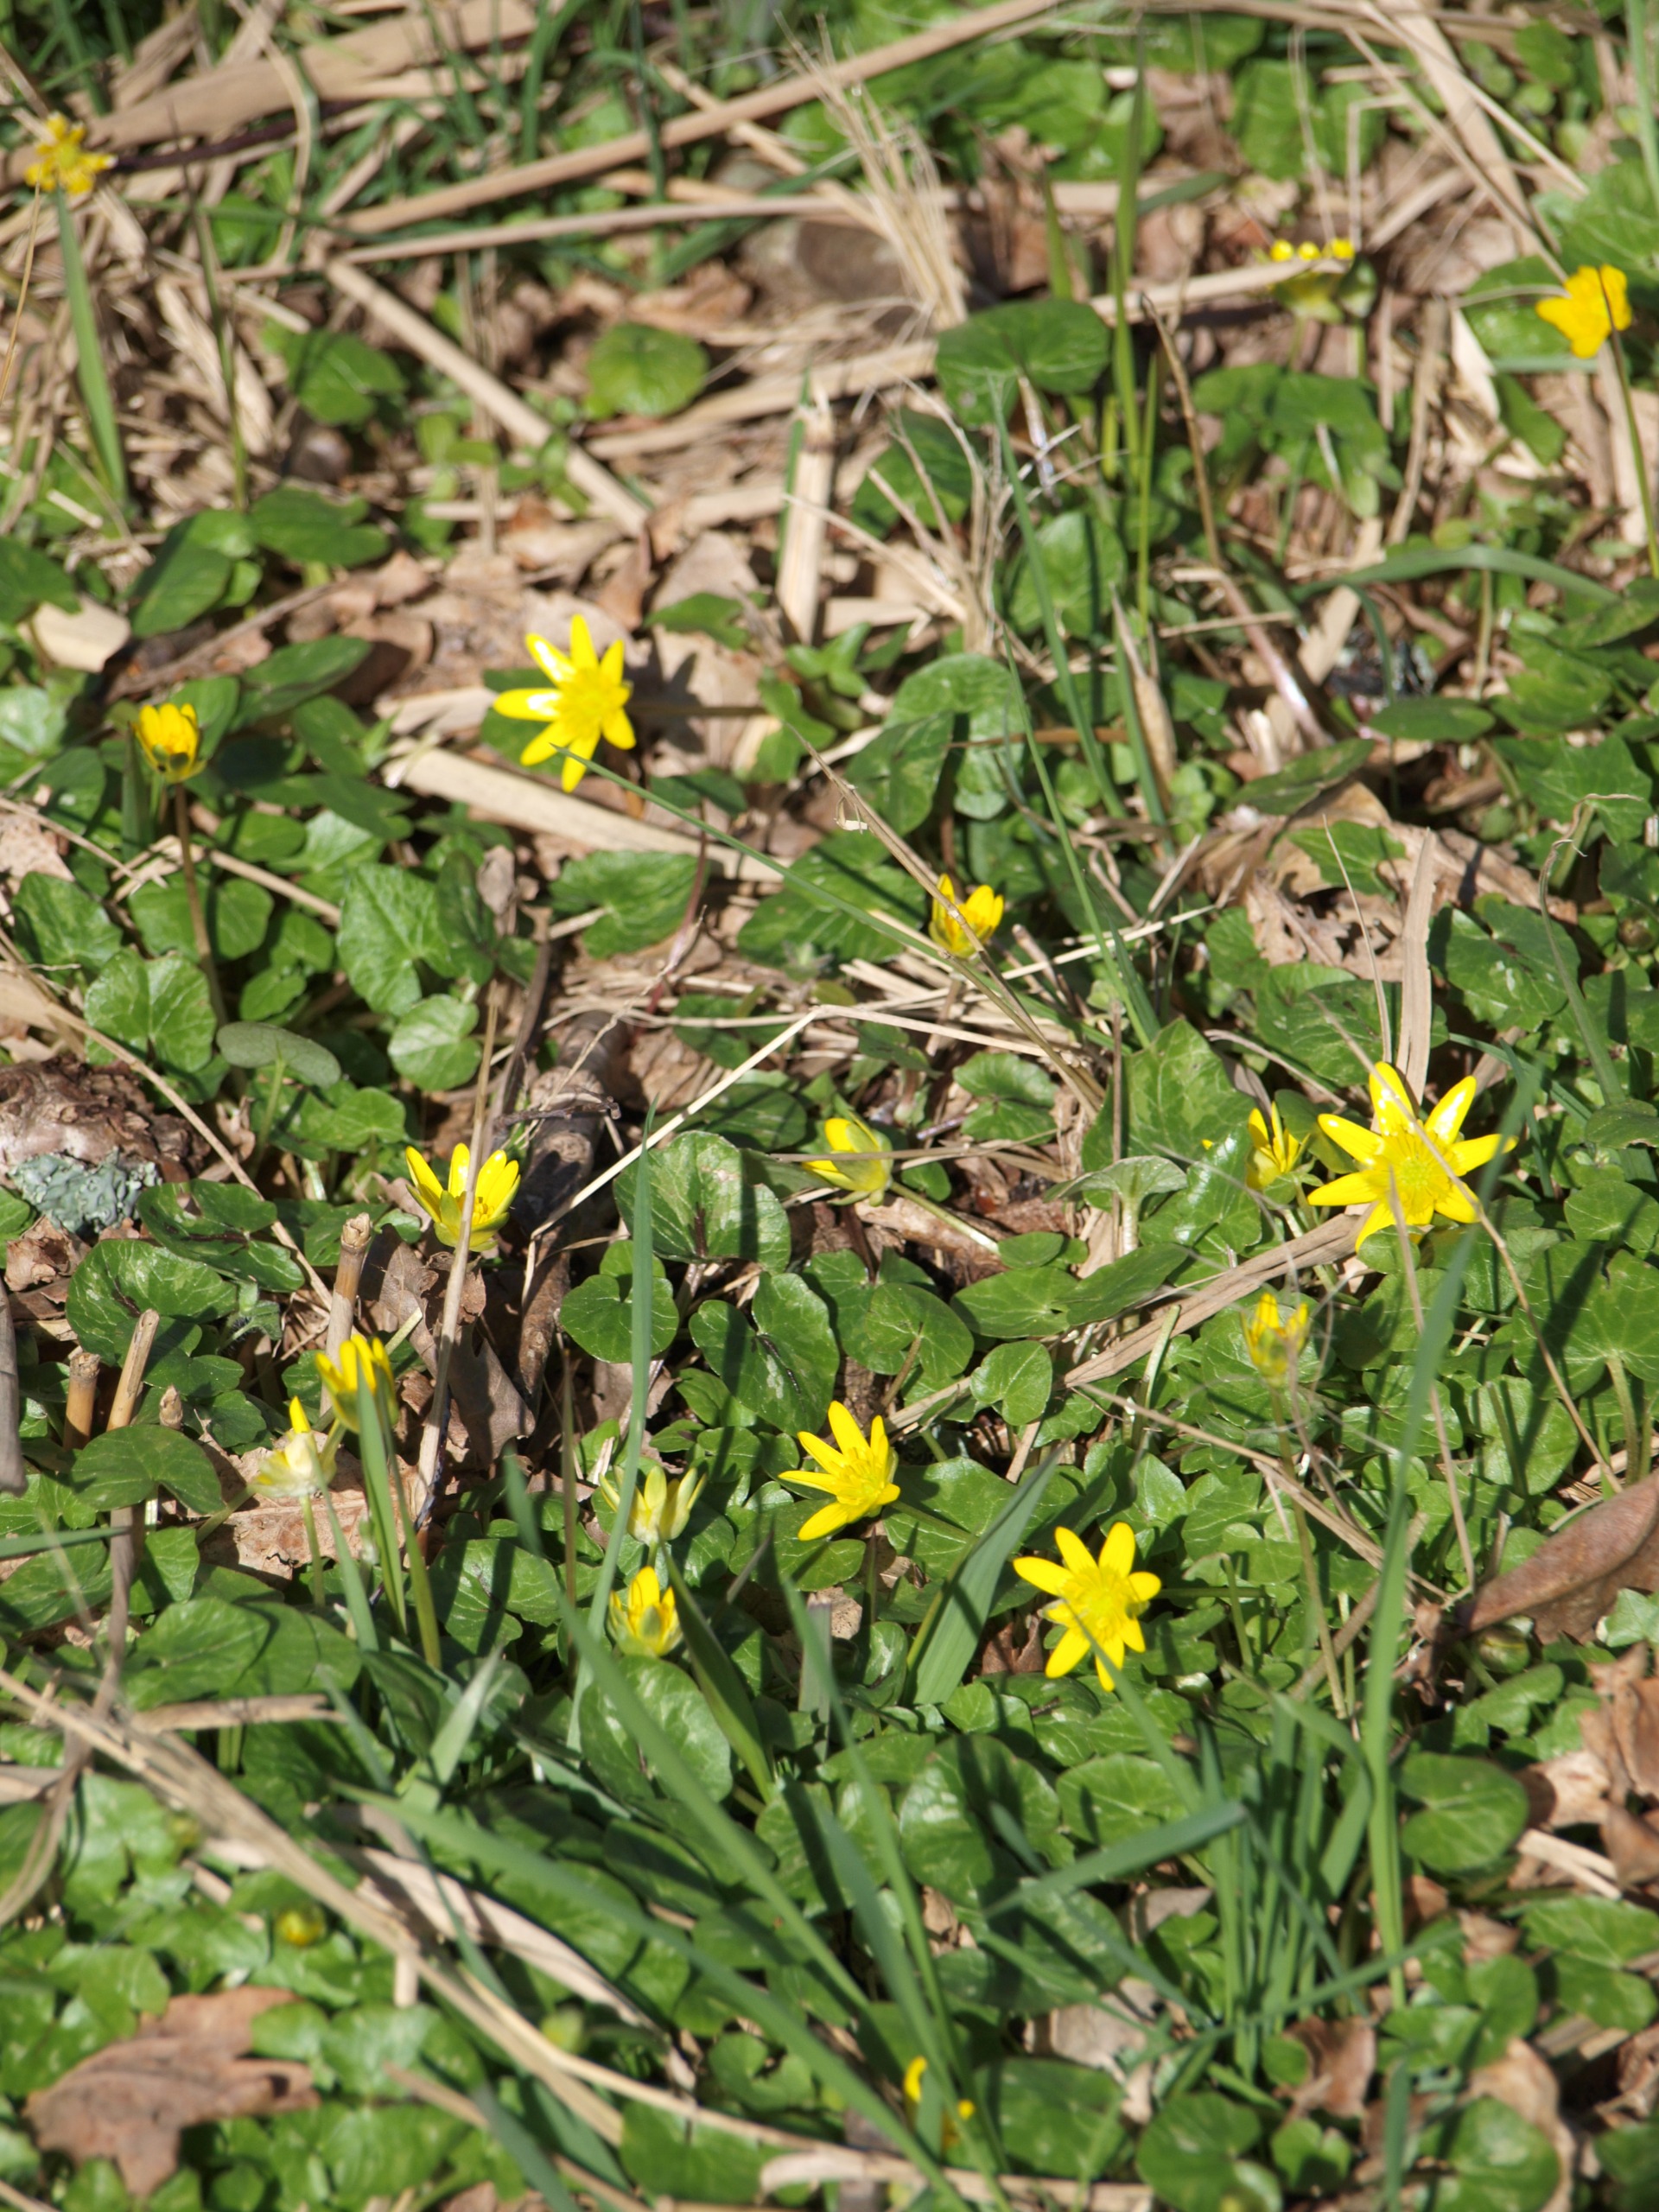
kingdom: Plantae
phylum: Tracheophyta
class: Magnoliopsida
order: Ranunculales
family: Ranunculaceae
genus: Ficaria
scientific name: Ficaria verna
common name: Vorterod
